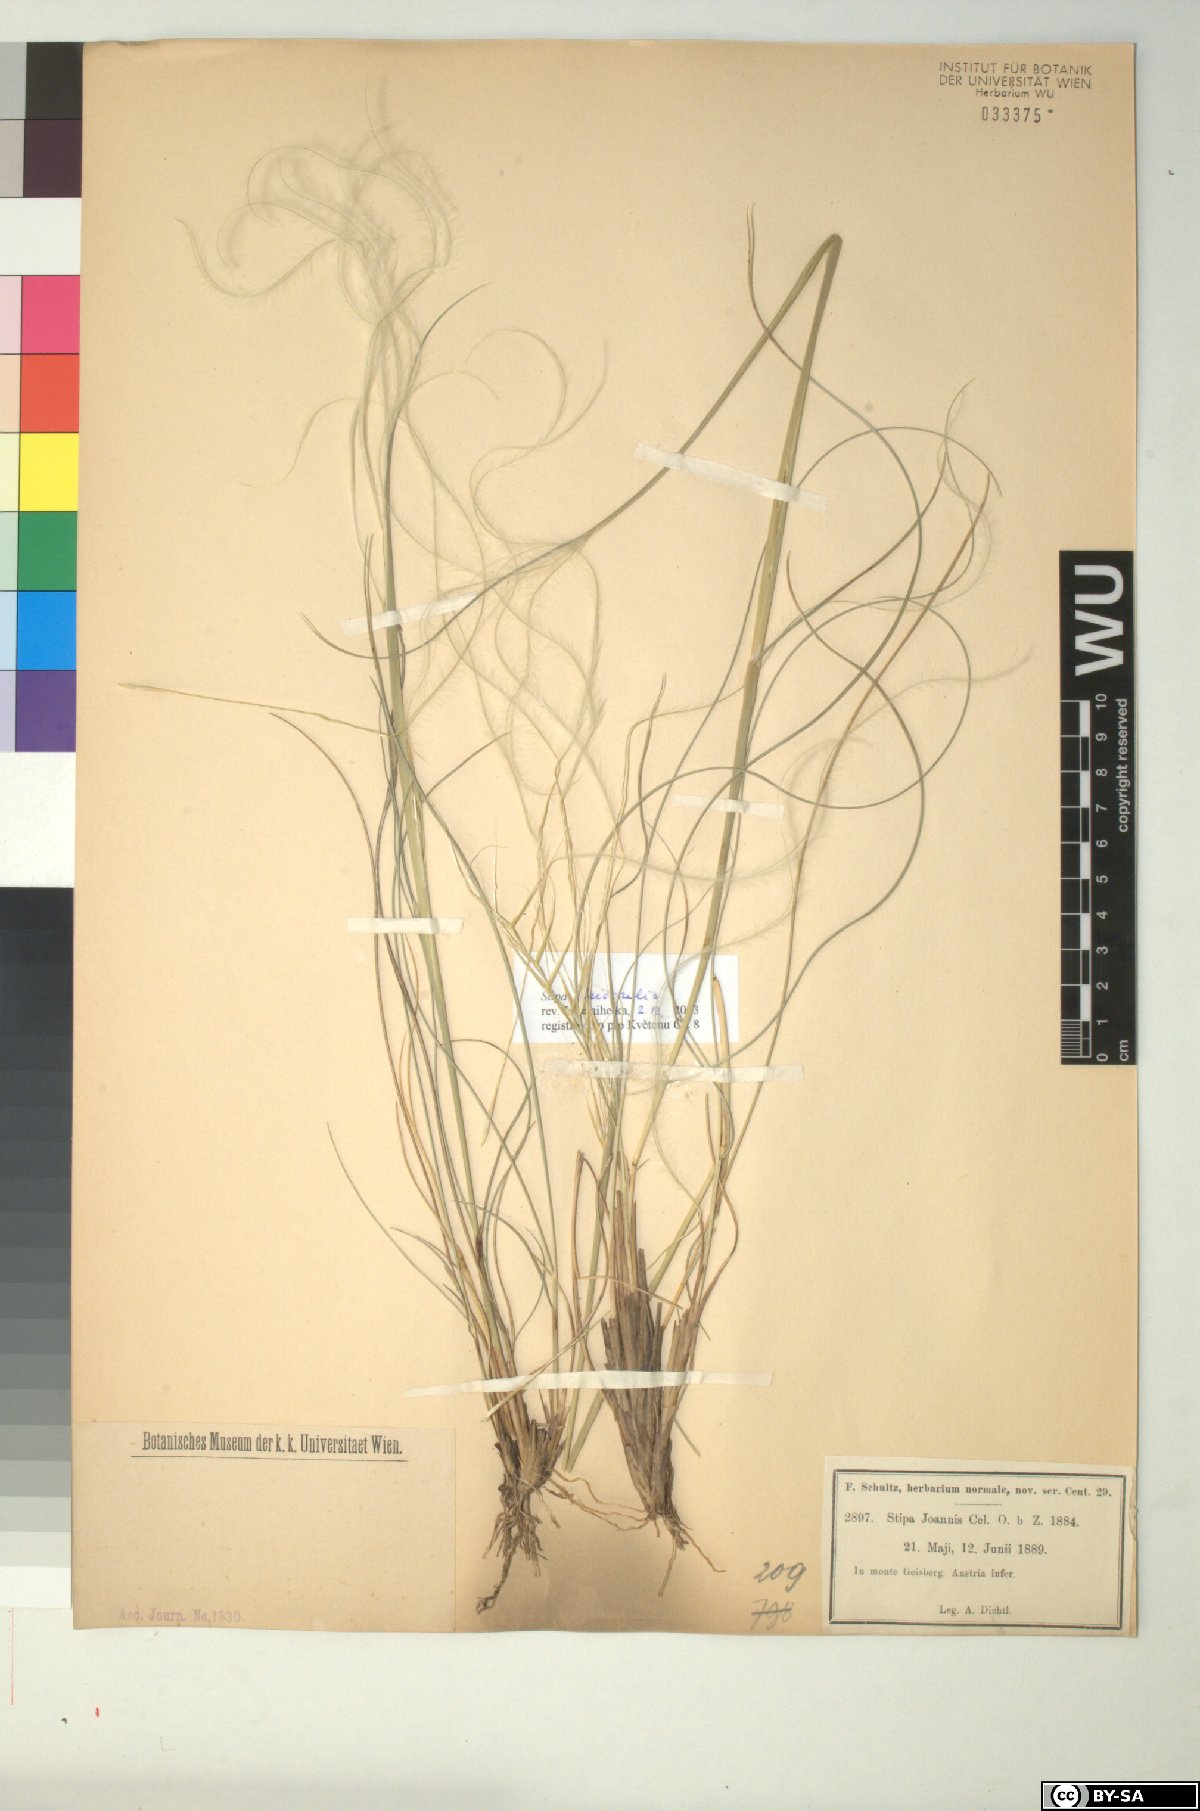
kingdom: Plantae
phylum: Tracheophyta
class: Liliopsida
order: Poales
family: Poaceae
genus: Stipa
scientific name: Stipa pennata
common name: European feather grass
